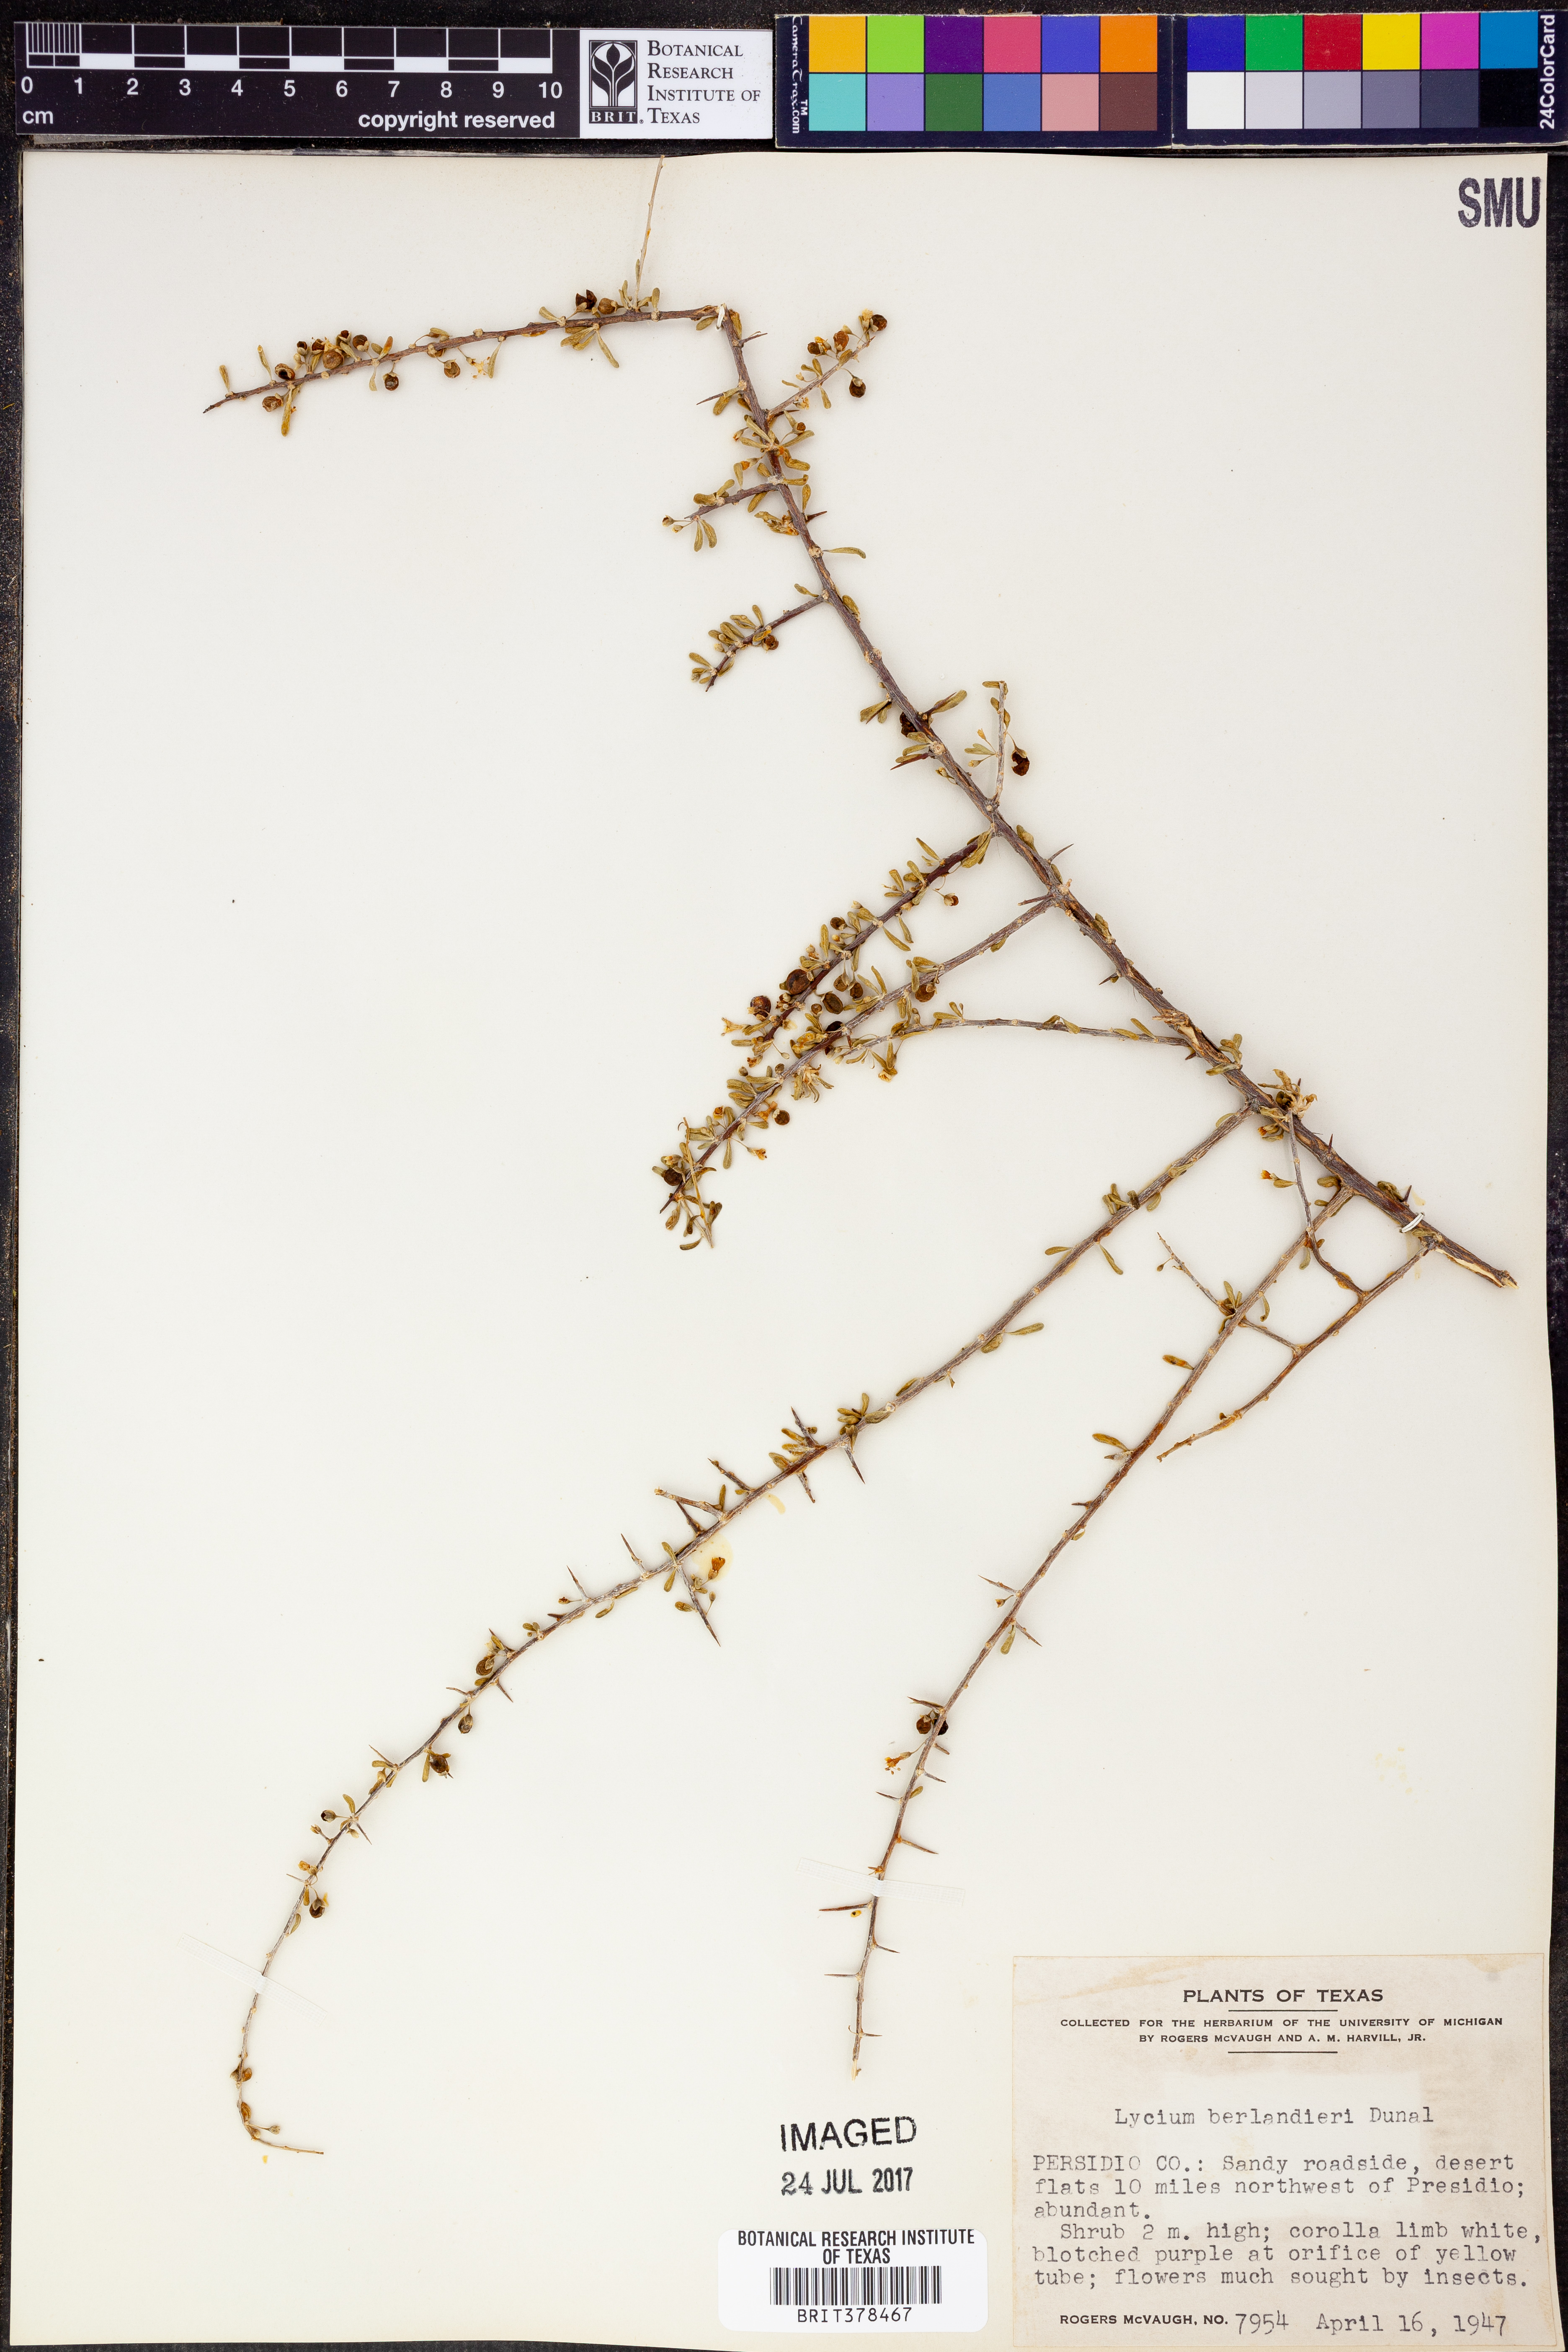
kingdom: Plantae
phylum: Tracheophyta
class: Magnoliopsida
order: Solanales
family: Solanaceae
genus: Lycium
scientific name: Lycium berlandieri
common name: Berlandier wolfberry
